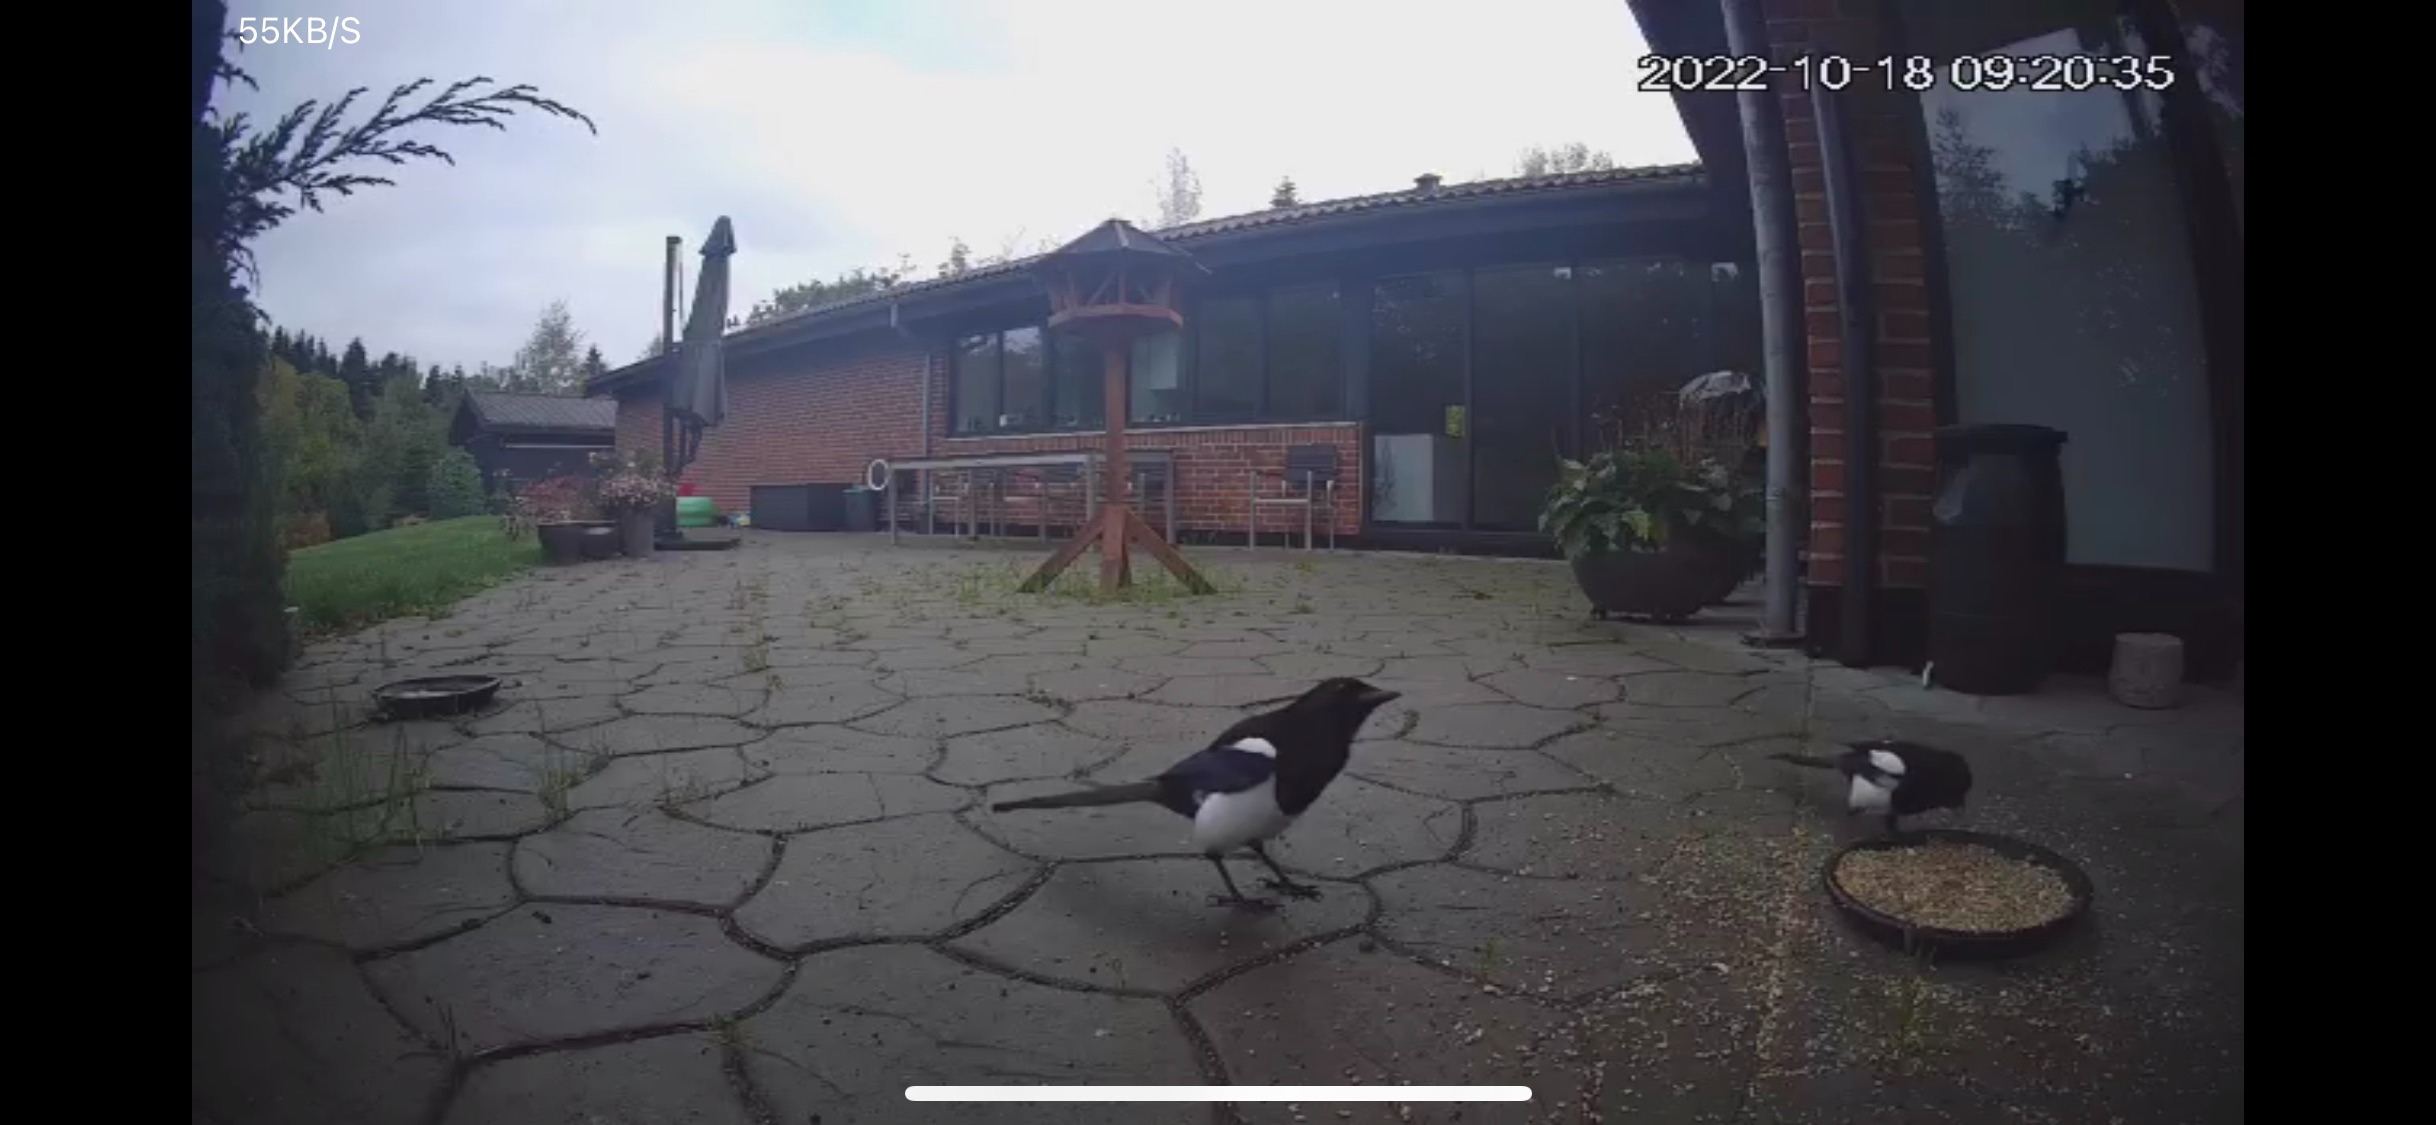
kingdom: Animalia
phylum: Chordata
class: Aves
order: Passeriformes
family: Corvidae
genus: Pica
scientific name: Pica pica
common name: Husskade
